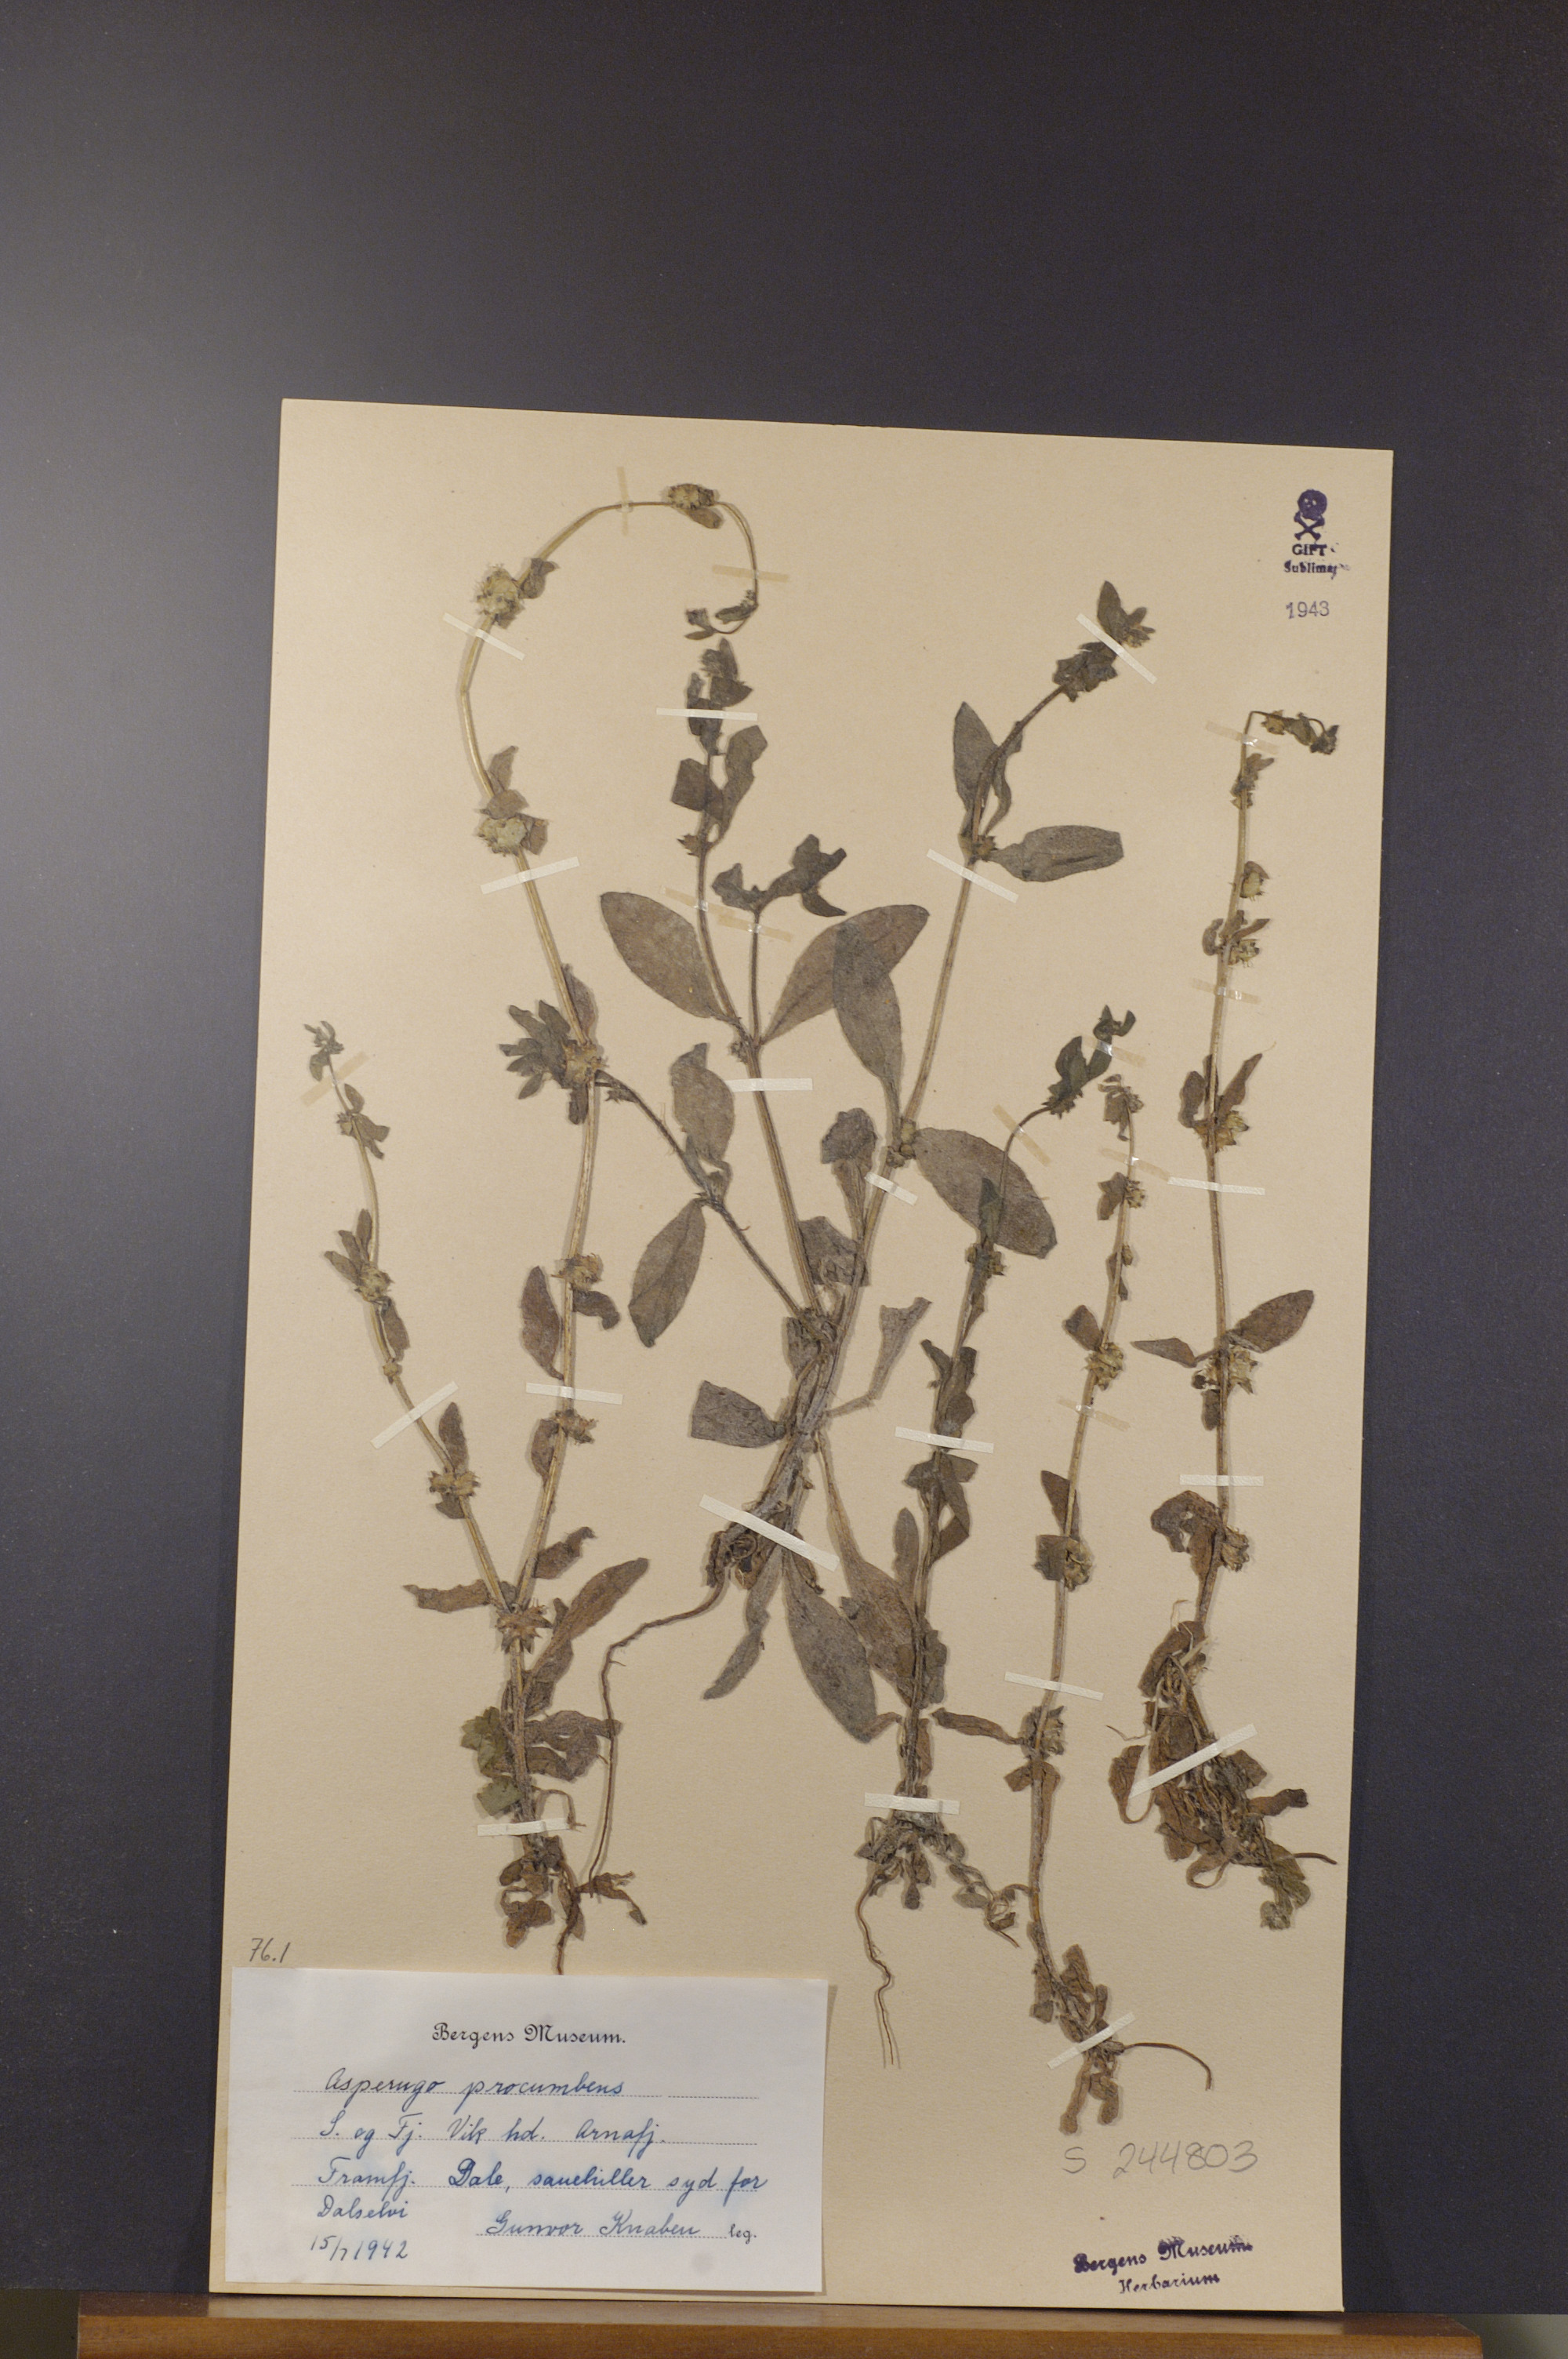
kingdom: Plantae
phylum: Tracheophyta
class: Magnoliopsida
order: Boraginales
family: Boraginaceae
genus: Asperugo
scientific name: Asperugo procumbens
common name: Madwort
